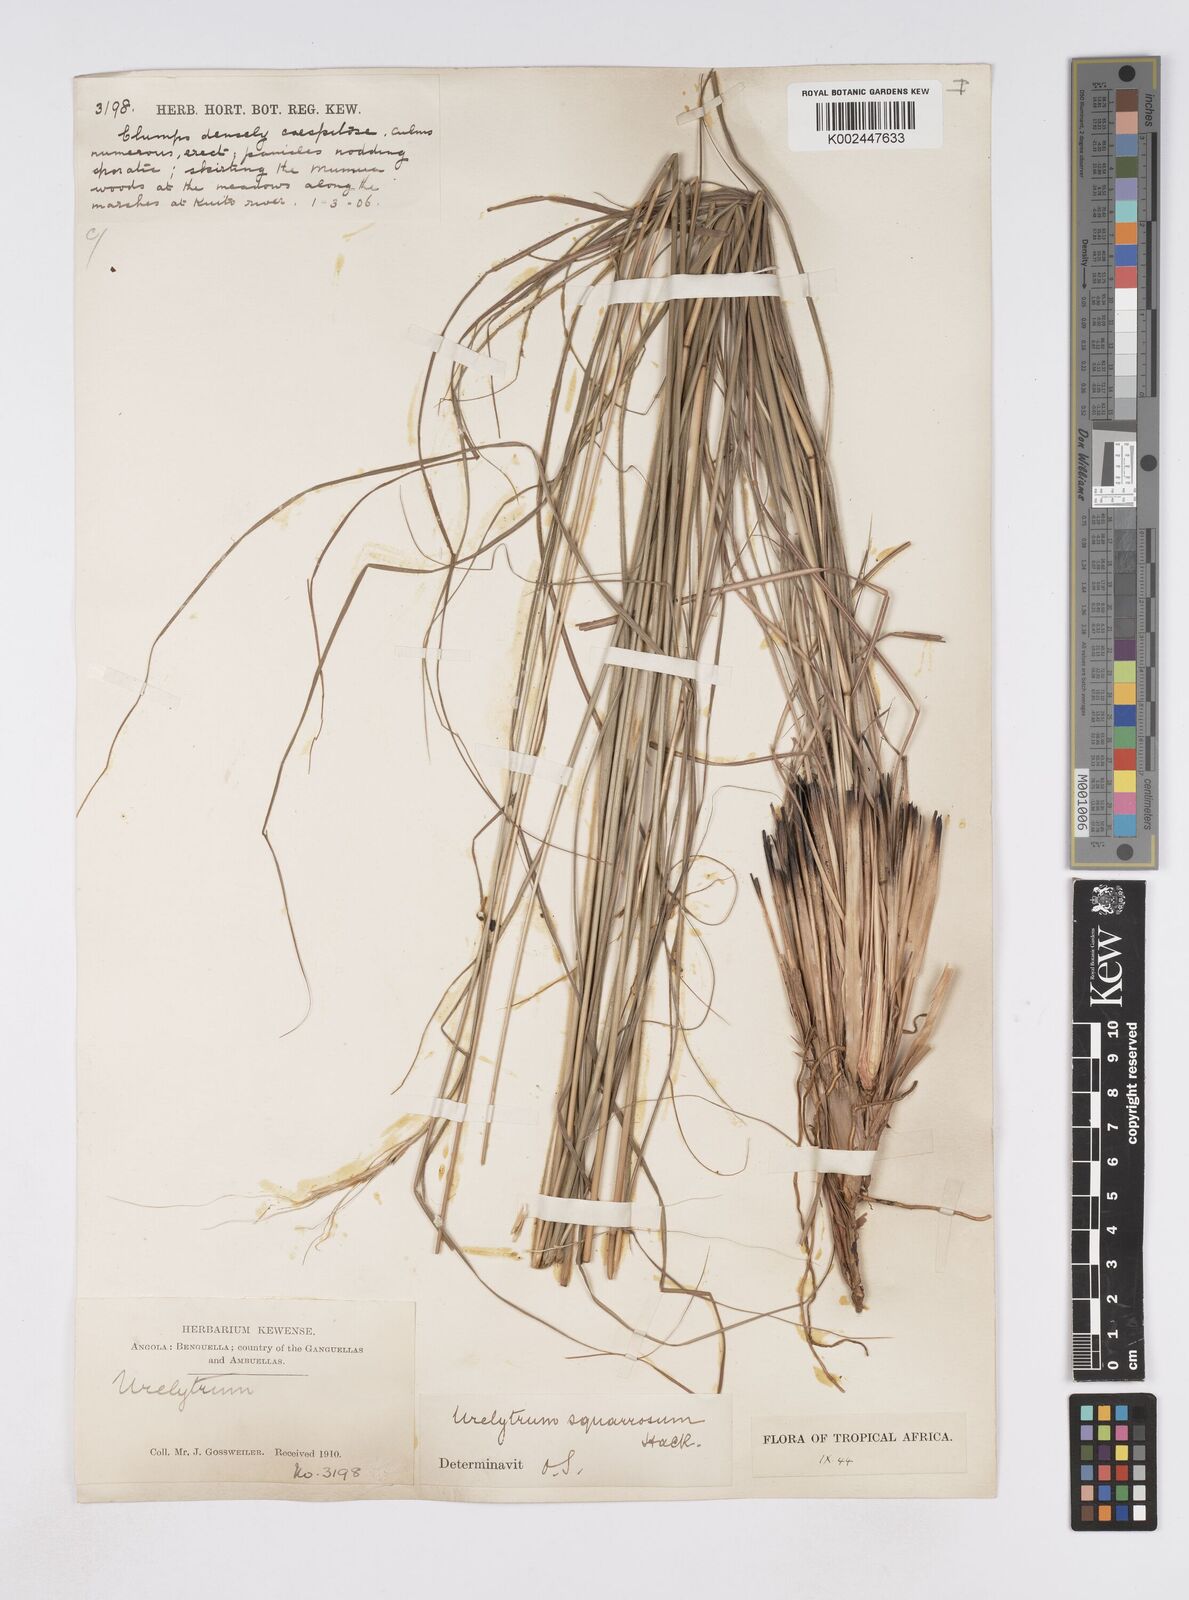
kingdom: Plantae
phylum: Tracheophyta
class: Liliopsida
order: Poales
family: Poaceae
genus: Urelytrum
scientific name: Urelytrum agropyroides
